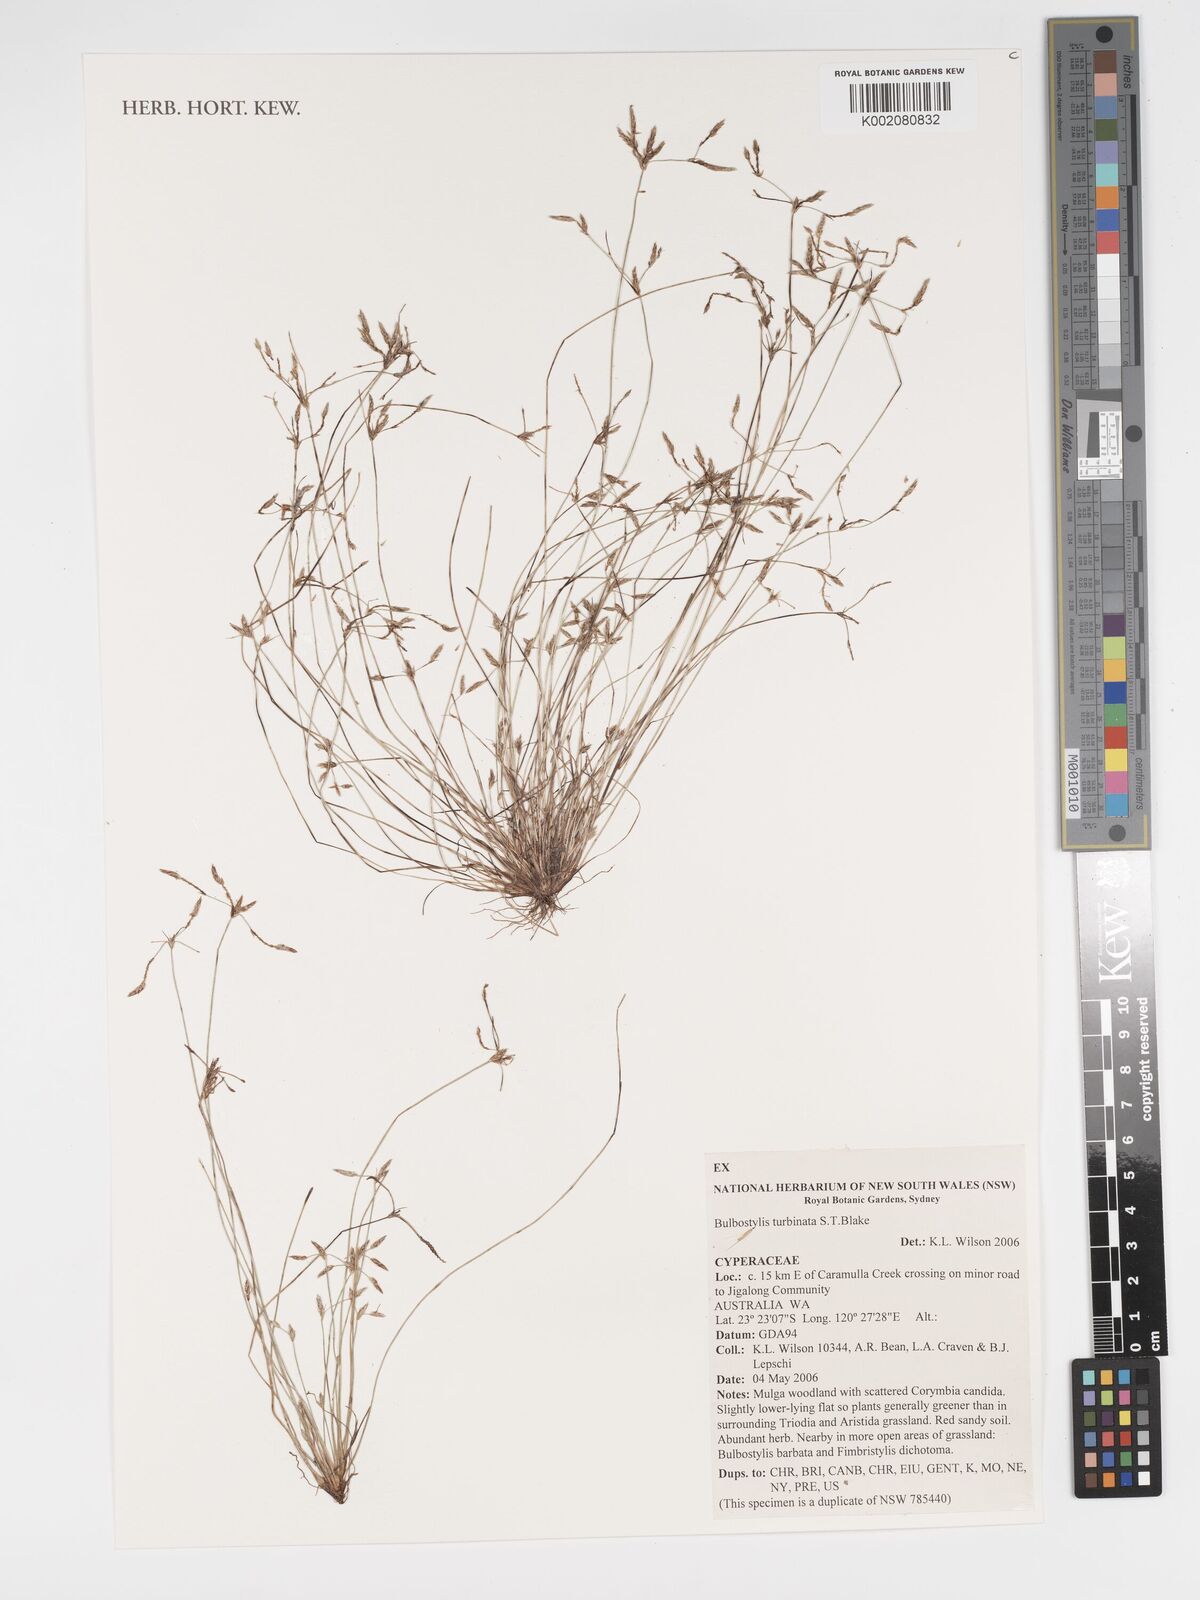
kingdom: Plantae
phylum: Tracheophyta
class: Liliopsida
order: Poales
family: Cyperaceae
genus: Bulbostylis
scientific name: Bulbostylis turbinata
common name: Hair sedge
